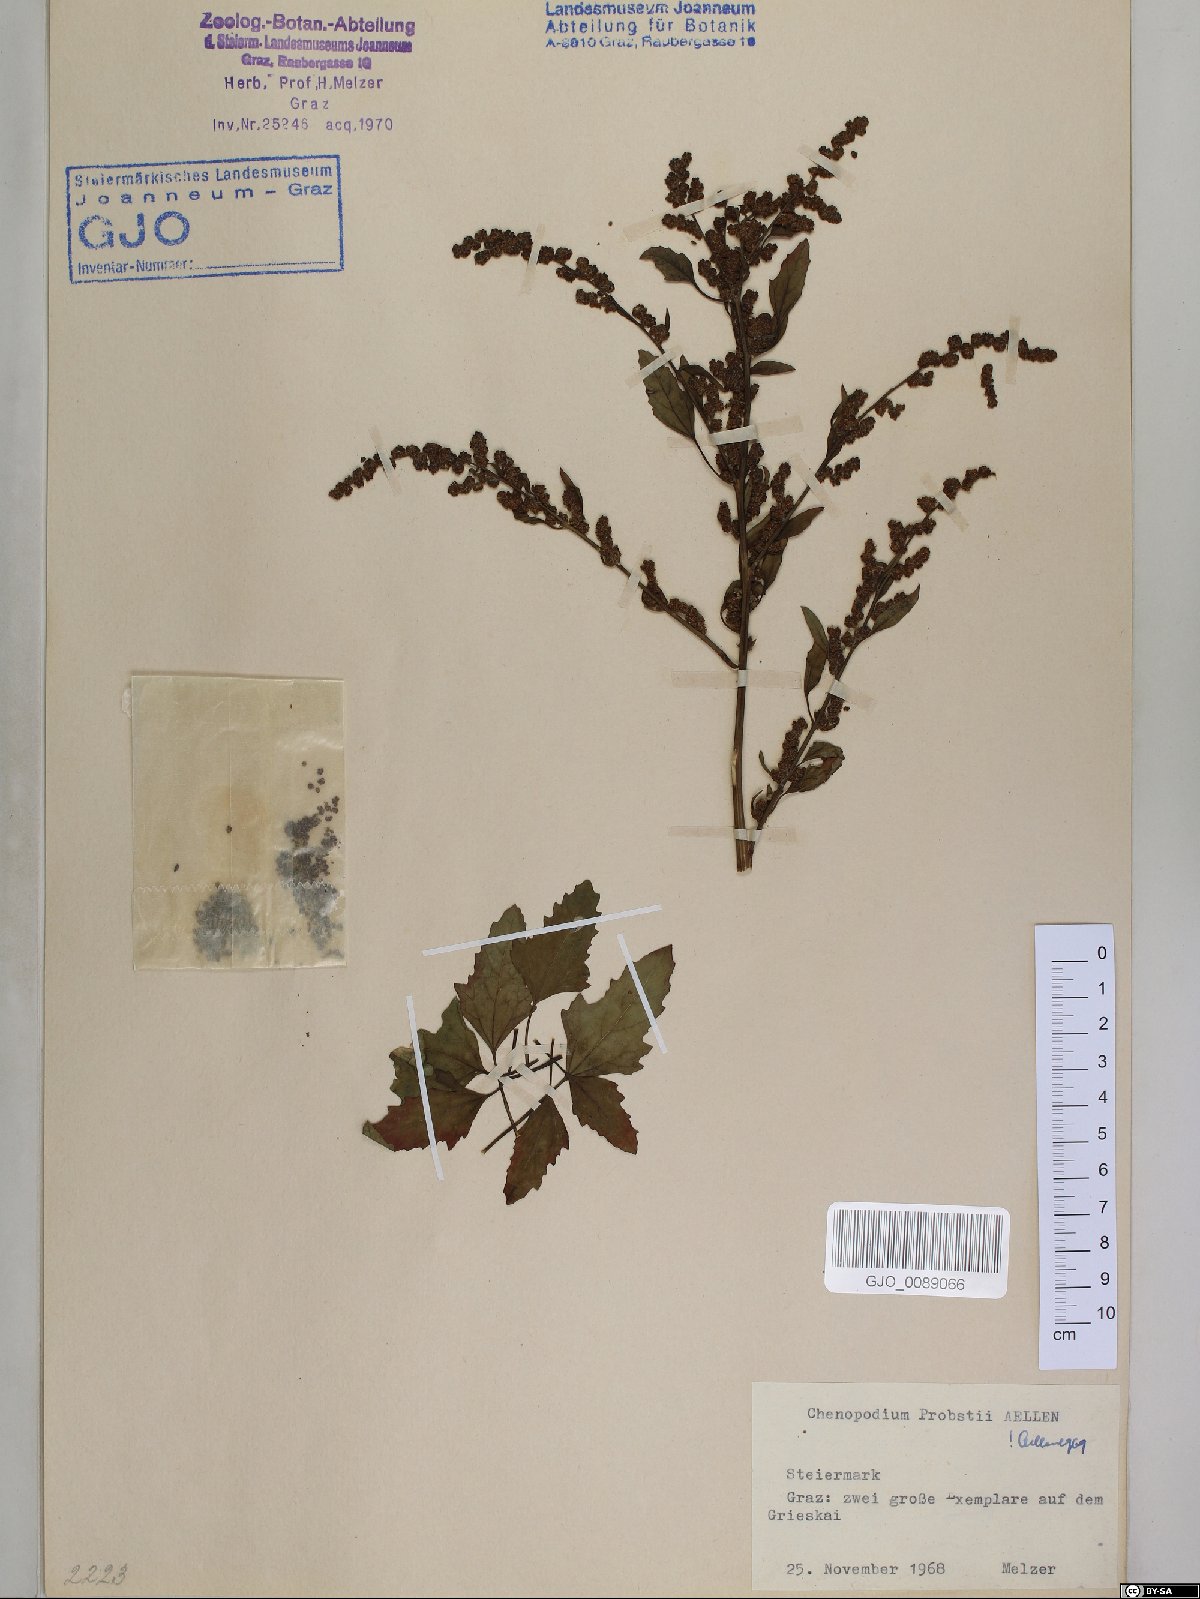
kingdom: Plantae
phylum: Tracheophyta
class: Magnoliopsida
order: Caryophyllales
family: Amaranthaceae
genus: Chenopodium
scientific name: Chenopodium probstii
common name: Probst's goosefoot
